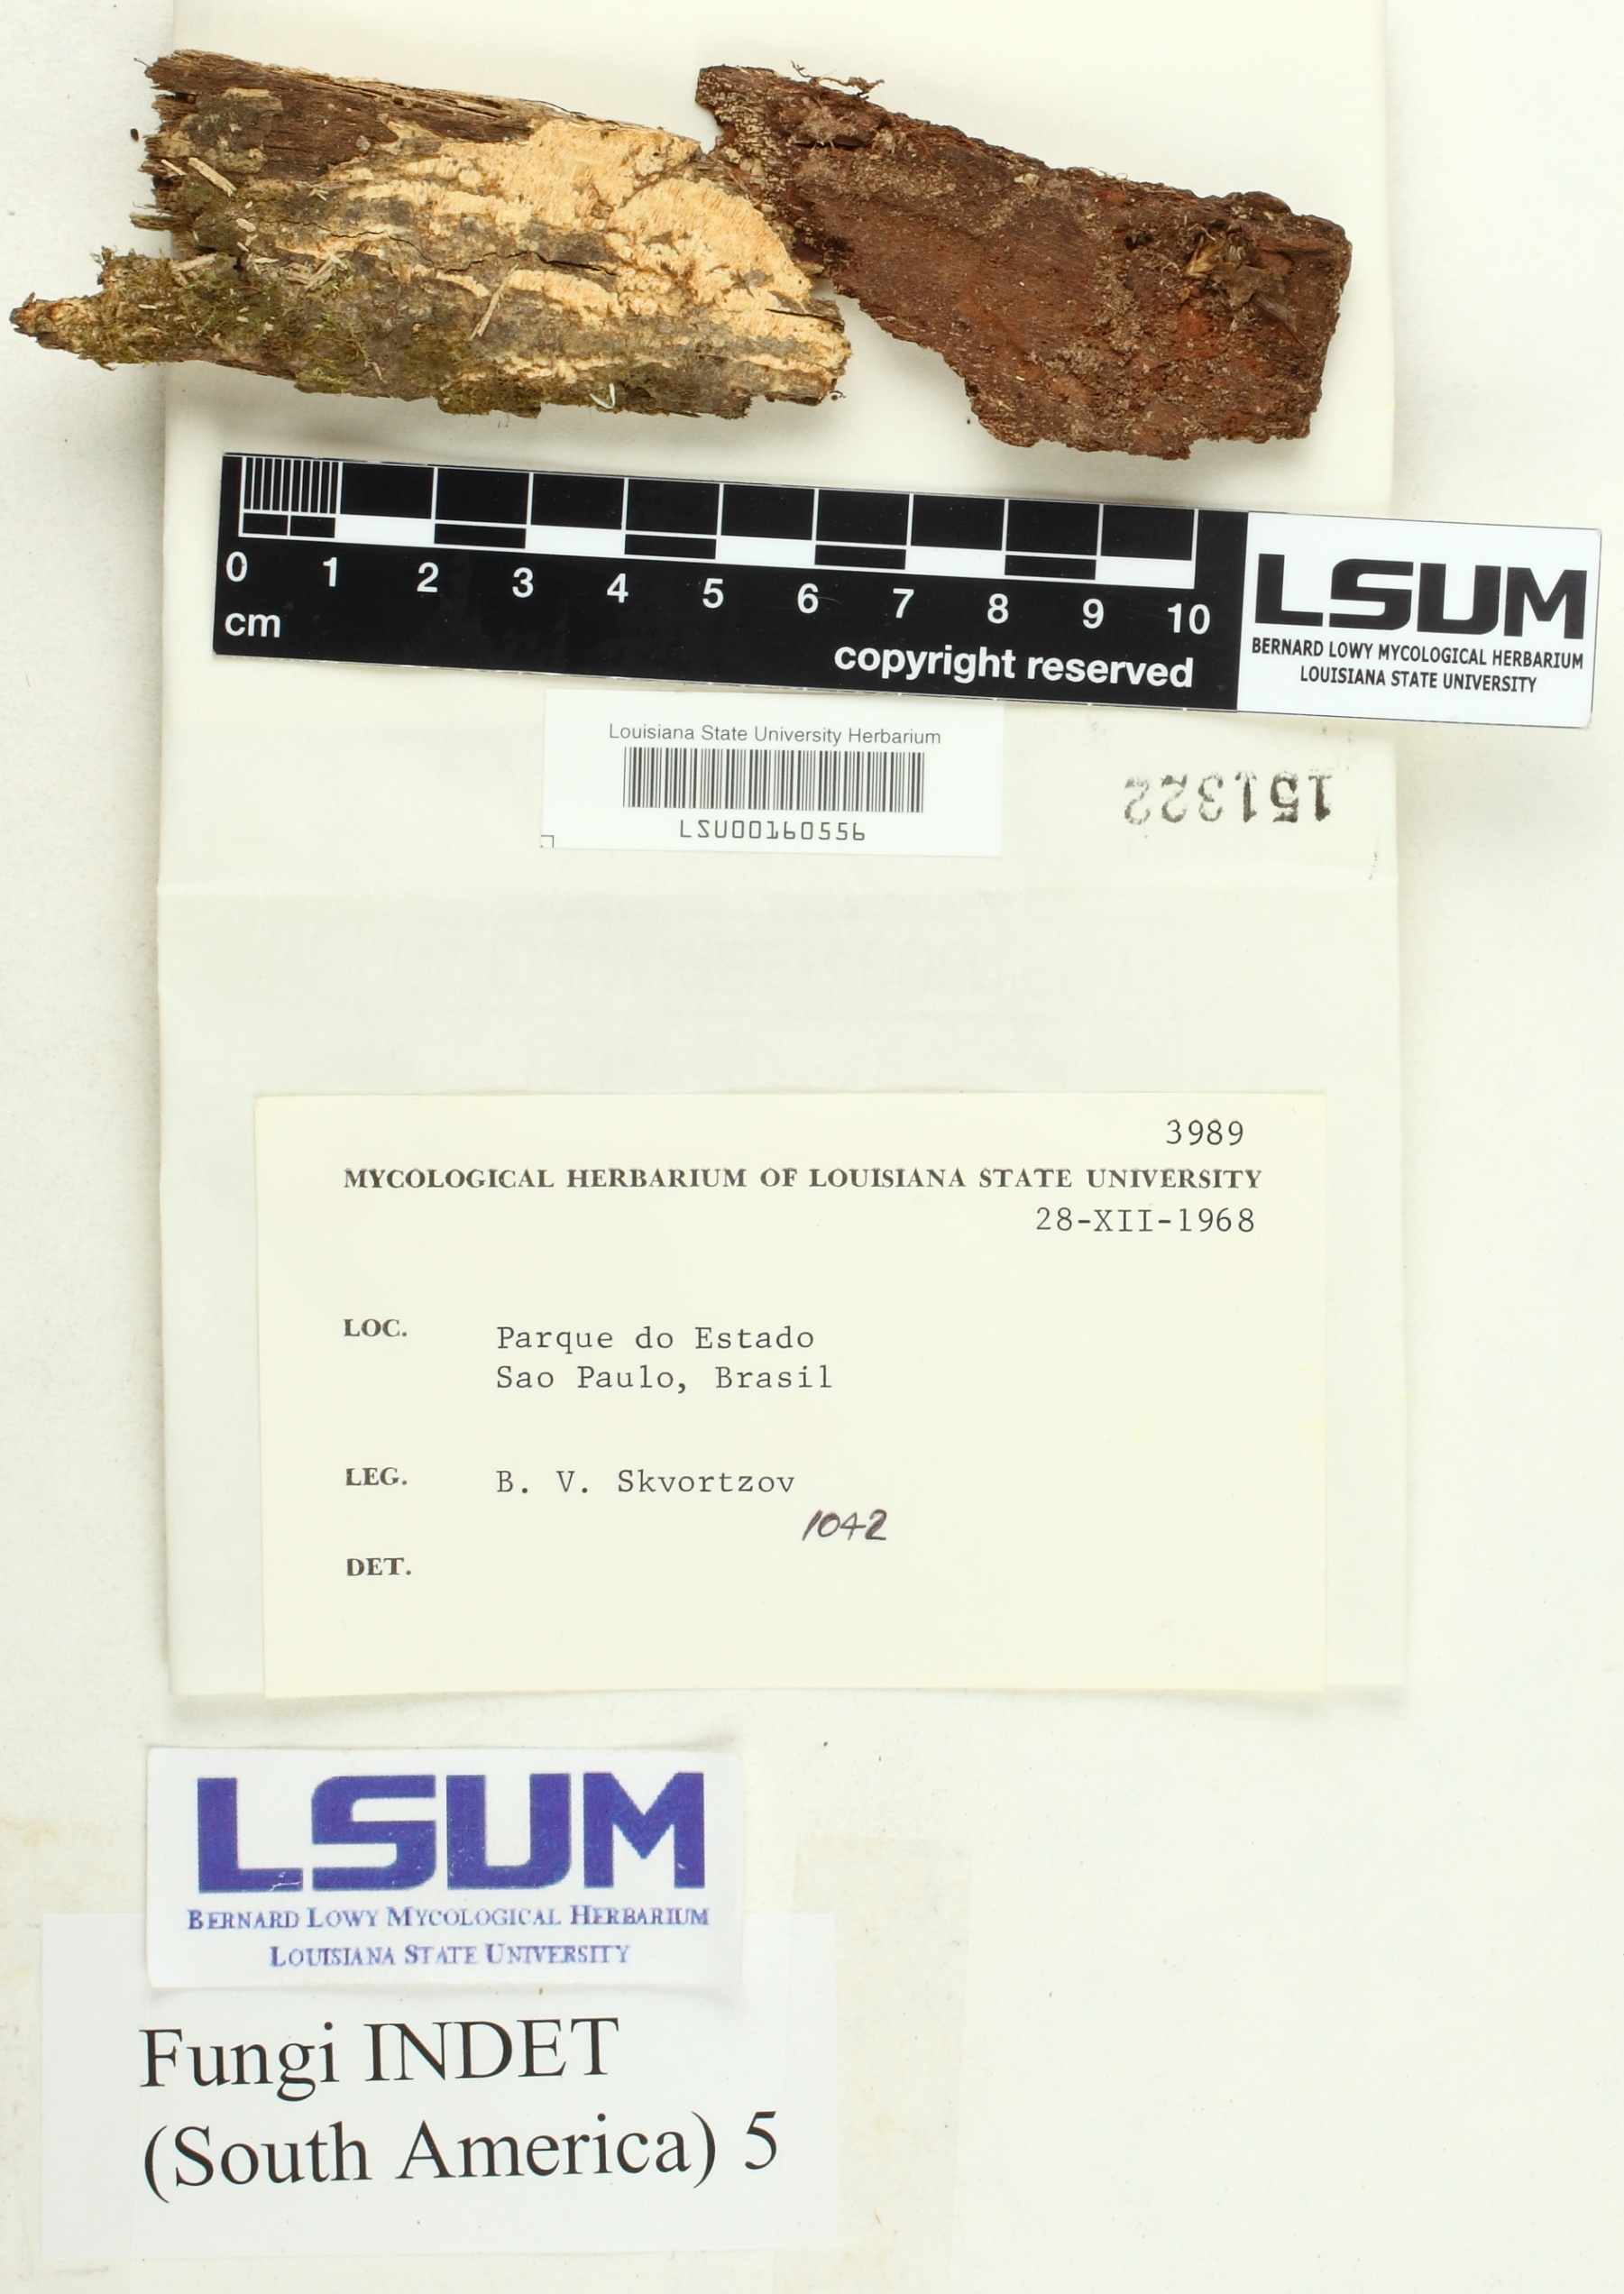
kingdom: Fungi
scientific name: Fungi
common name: Fungi
